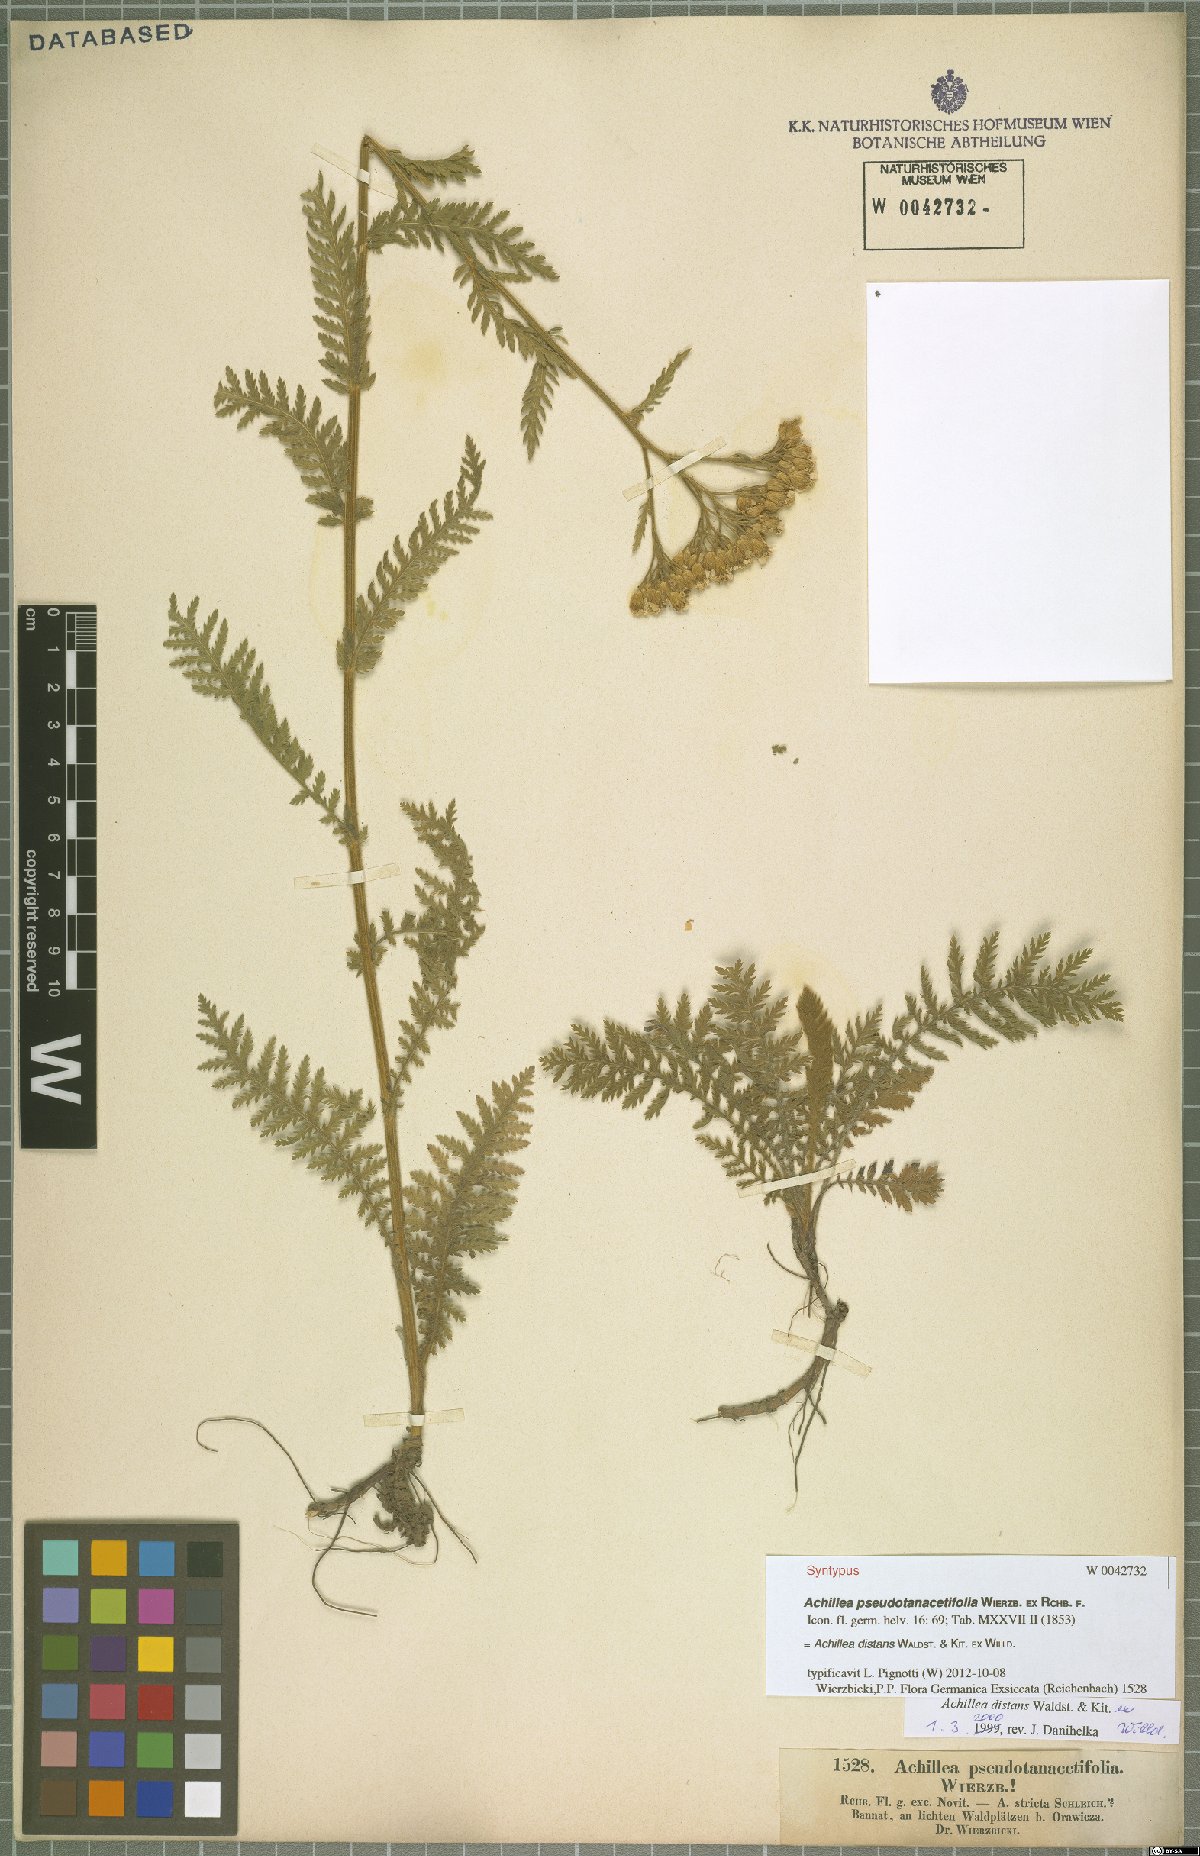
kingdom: Plantae
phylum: Tracheophyta
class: Magnoliopsida
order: Asterales
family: Asteraceae
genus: Achillea
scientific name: Achillea distans
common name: Tall yarrow
